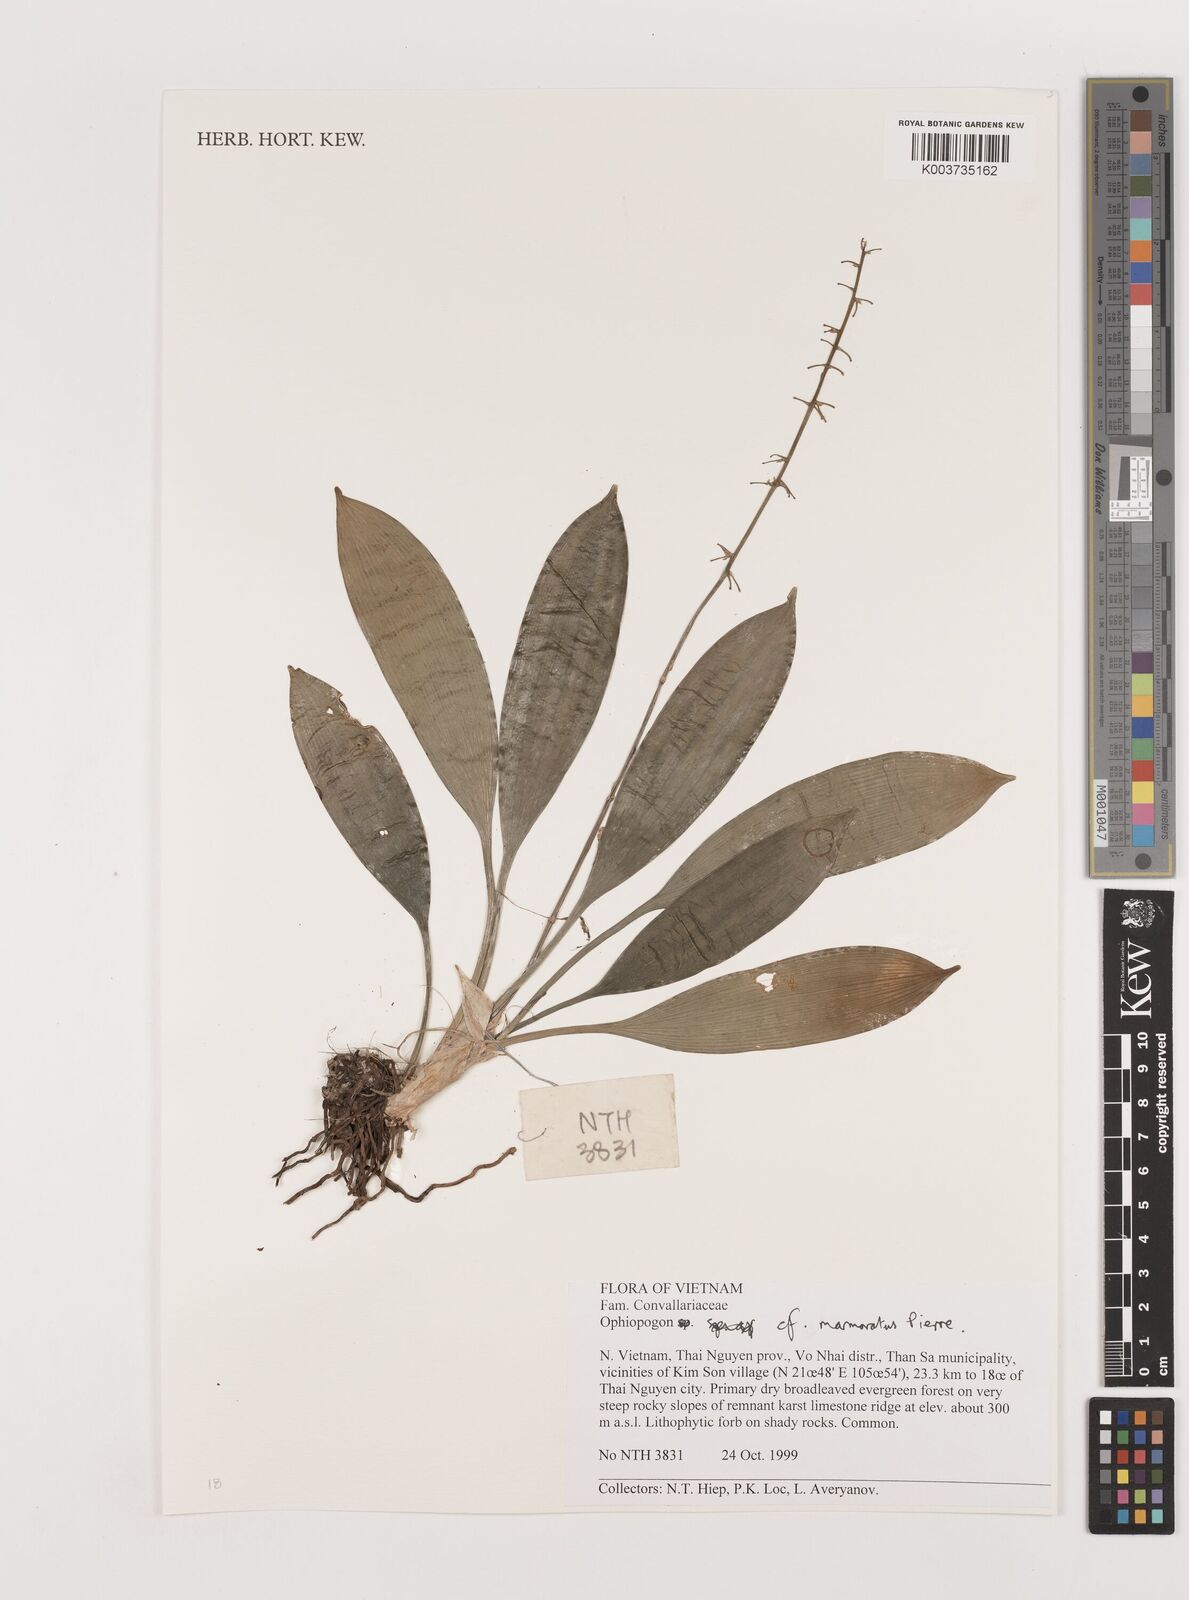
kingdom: Plantae
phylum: Tracheophyta
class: Liliopsida
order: Asparagales
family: Asparagaceae
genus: Ophiopogon
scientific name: Ophiopogon marmoratus
